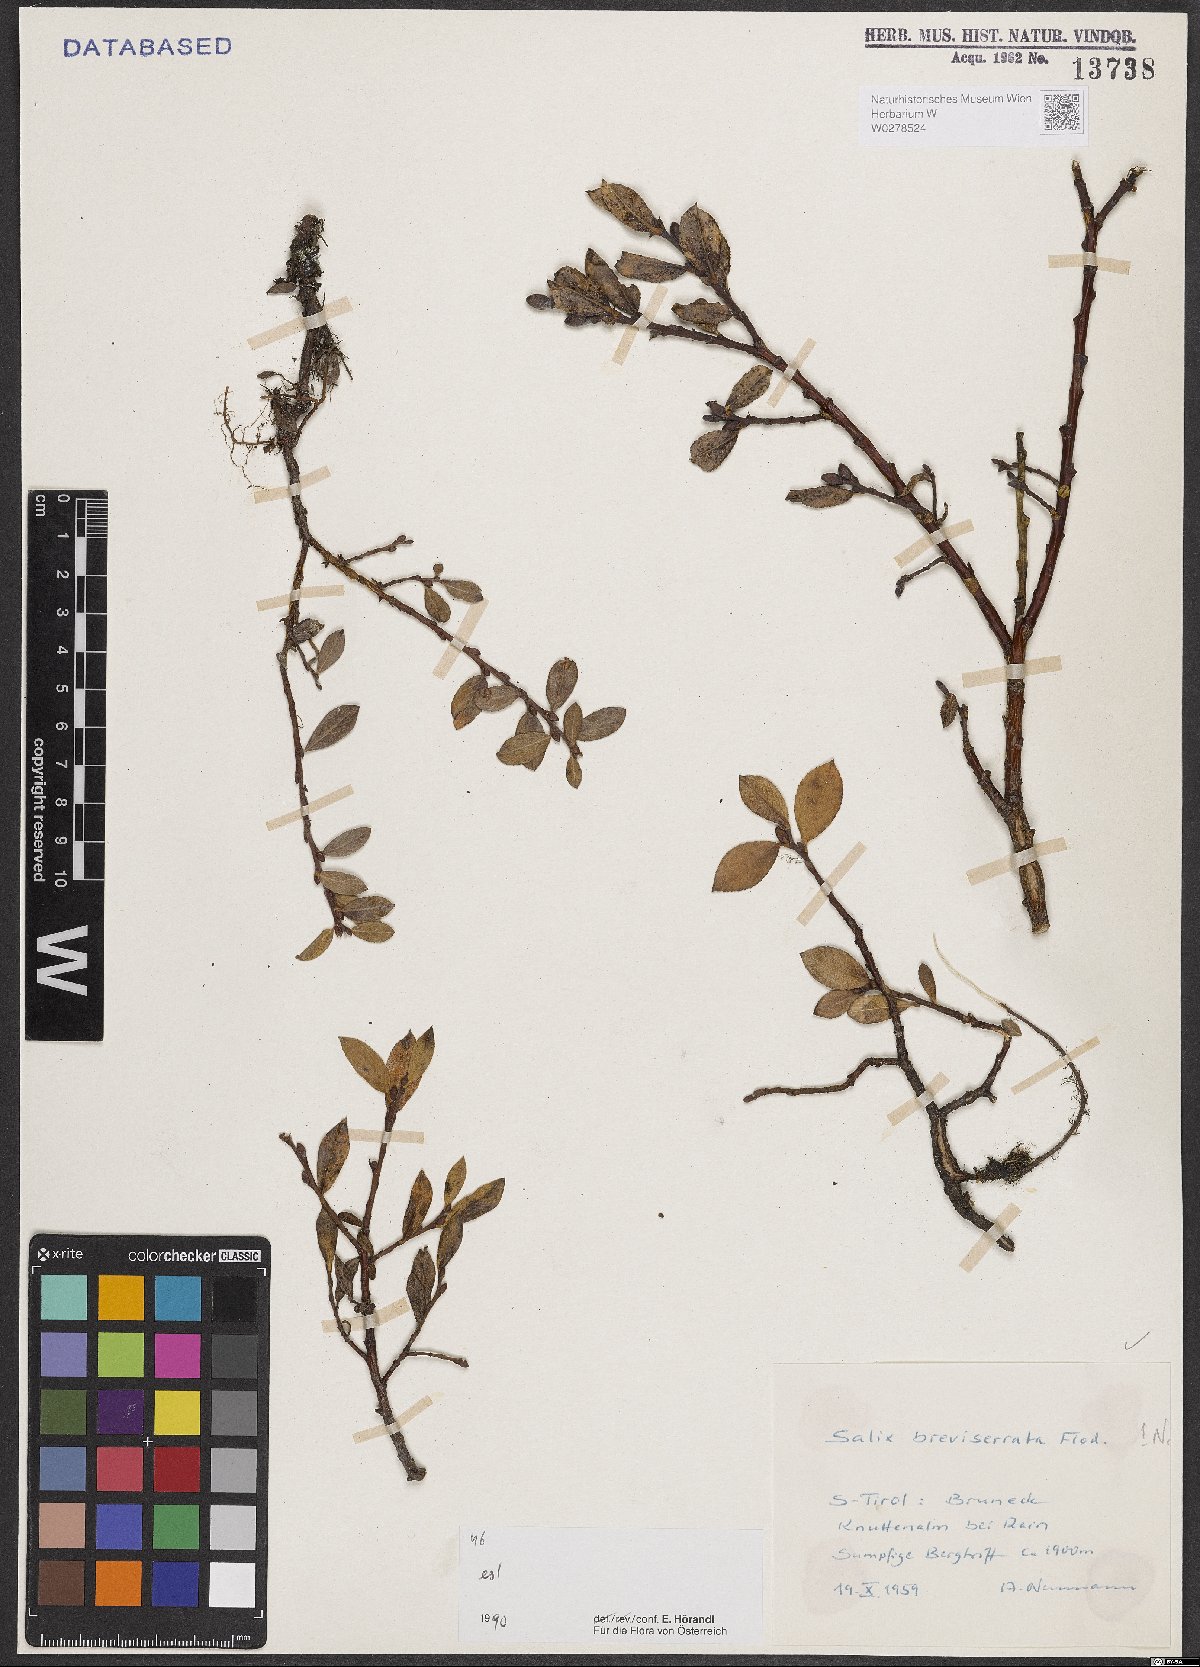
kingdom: Plantae
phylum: Tracheophyta
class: Magnoliopsida
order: Malpighiales
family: Salicaceae
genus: Salix
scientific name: Salix breviserrata
